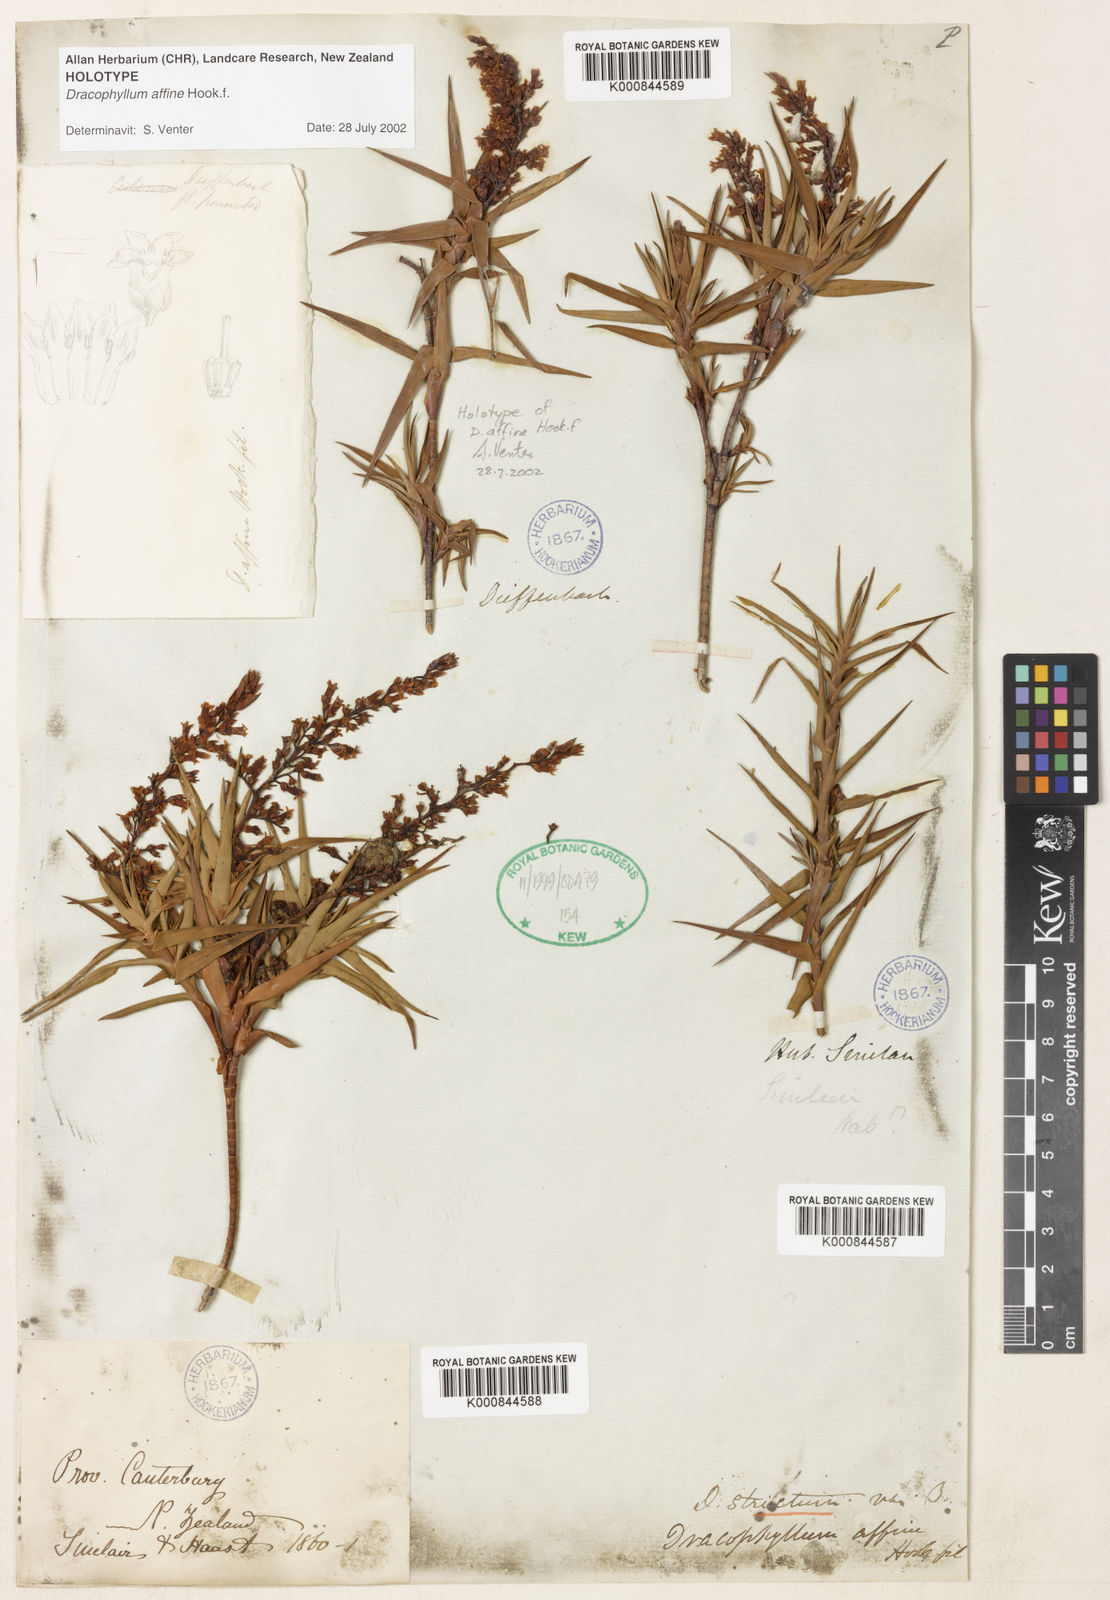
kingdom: Plantae
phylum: Tracheophyta
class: Magnoliopsida
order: Ericales
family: Ericaceae
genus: Dracophyllum
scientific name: Dracophyllum strictum
